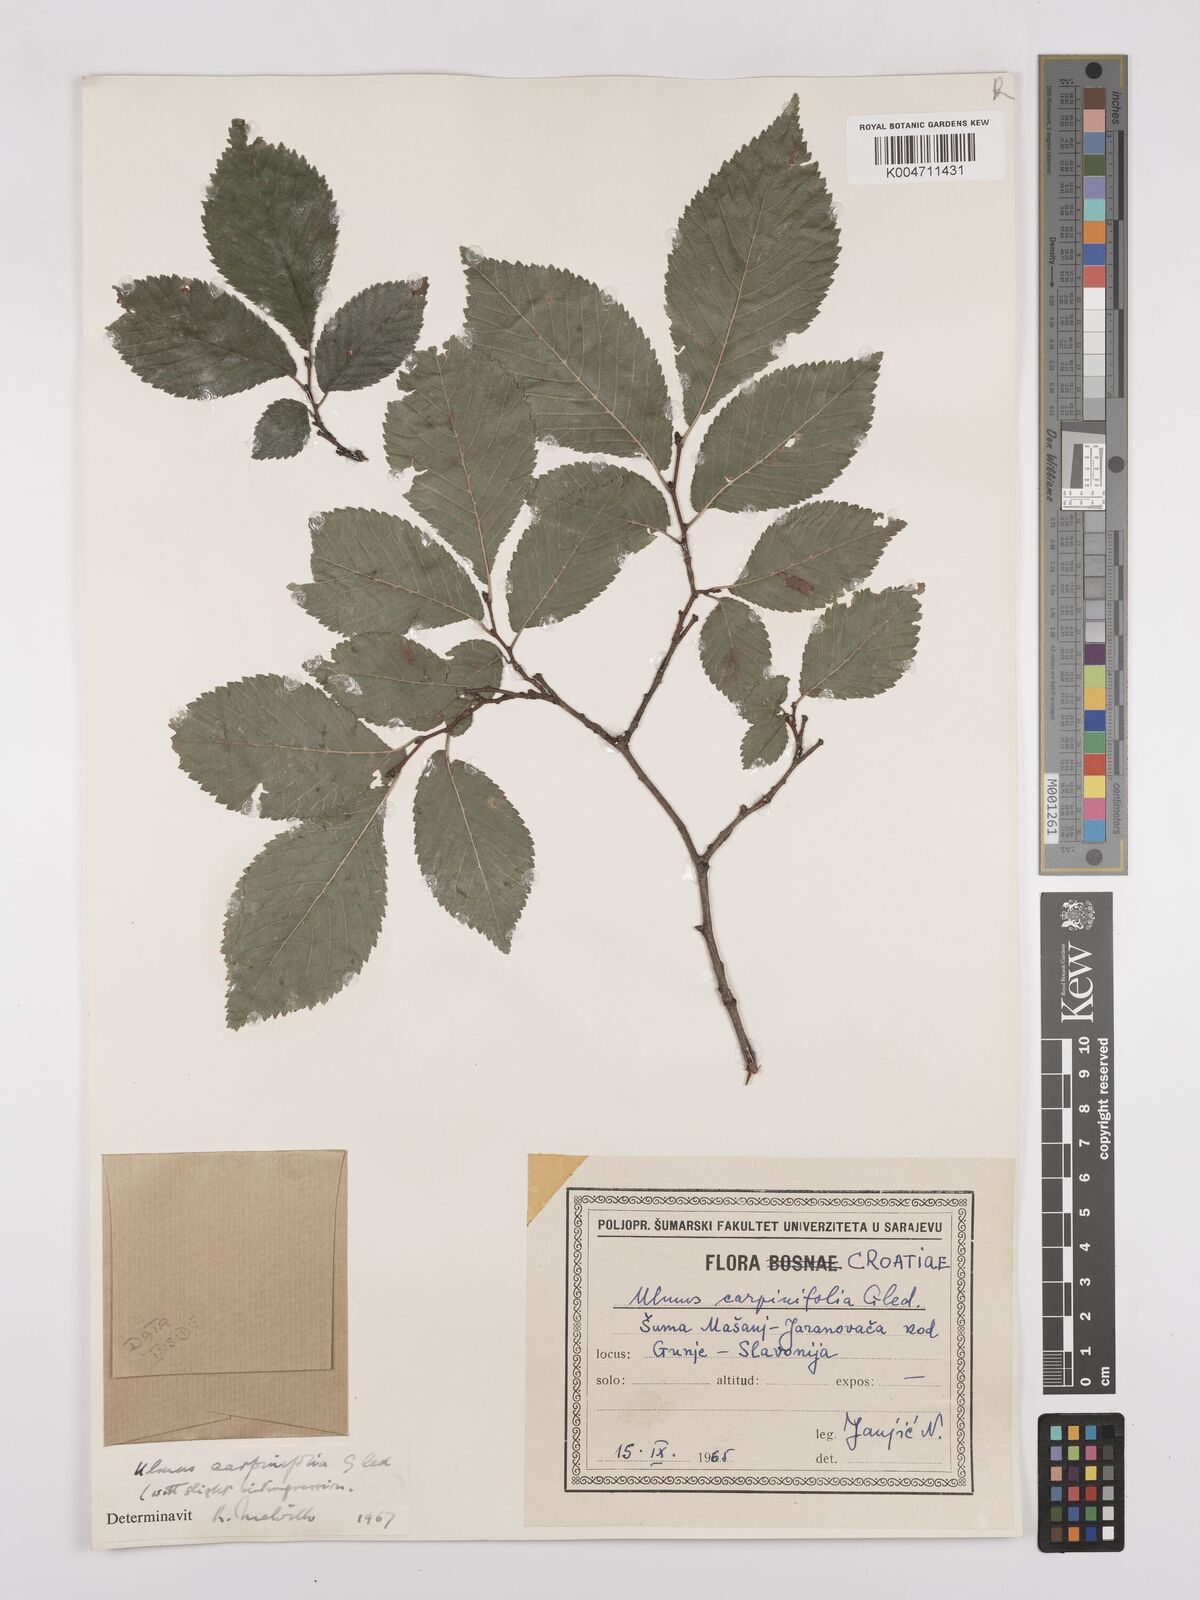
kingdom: Plantae
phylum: Tracheophyta
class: Magnoliopsida
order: Rosales
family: Ulmaceae
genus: Ulmus
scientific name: Ulmus minor
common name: Small-leaved elm
